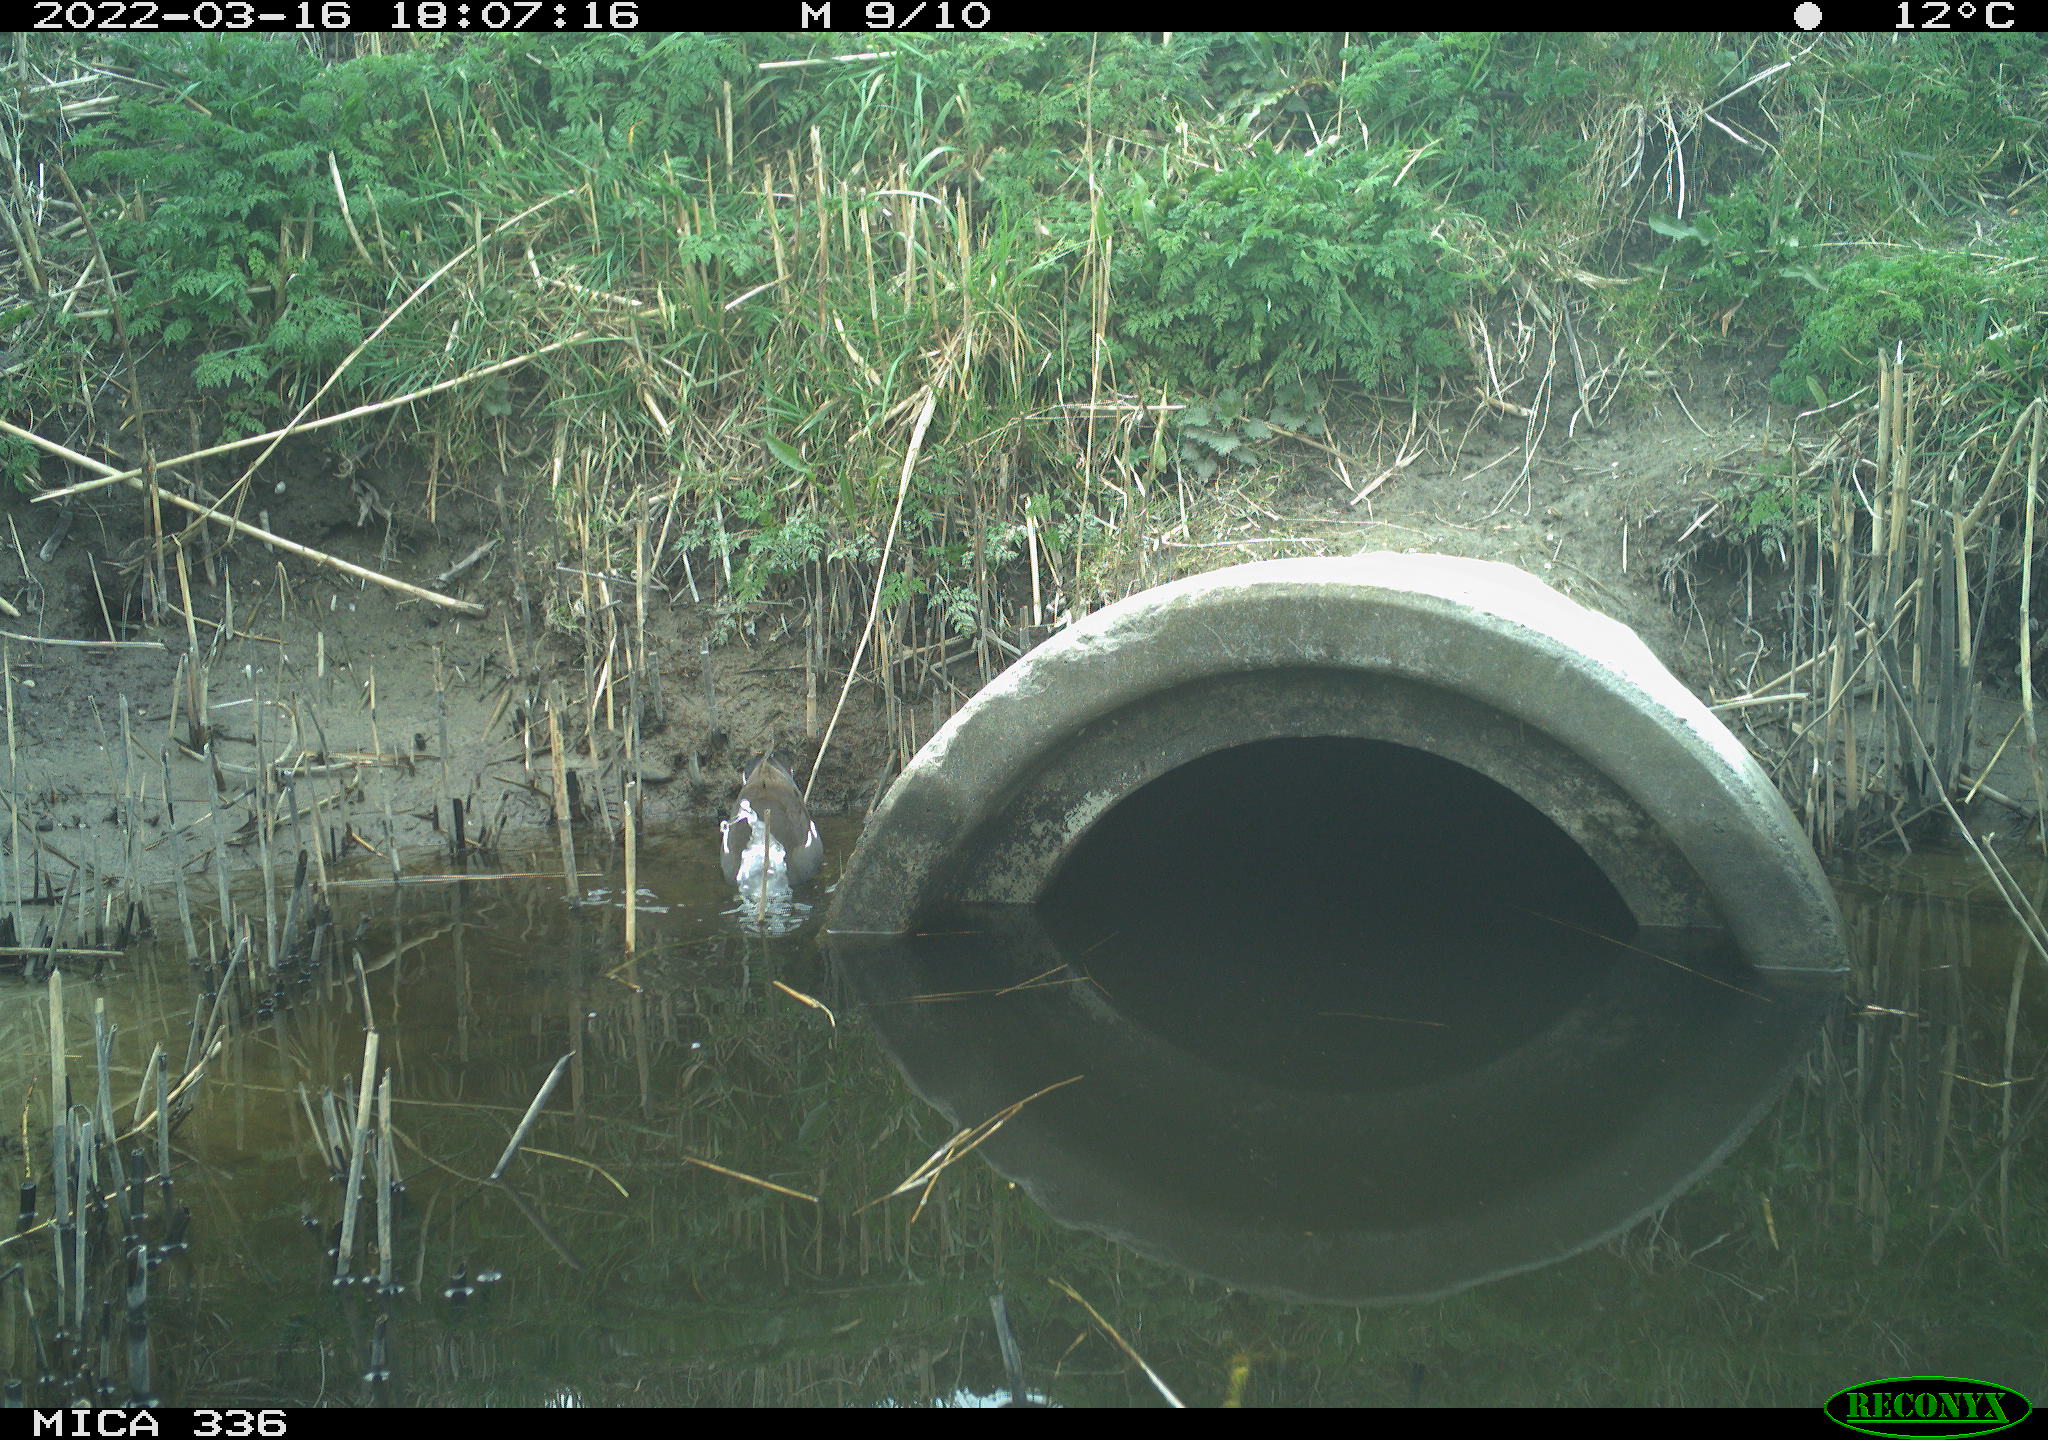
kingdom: Animalia
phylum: Chordata
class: Aves
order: Gruiformes
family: Rallidae
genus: Gallinula
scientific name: Gallinula chloropus
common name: Common moorhen
